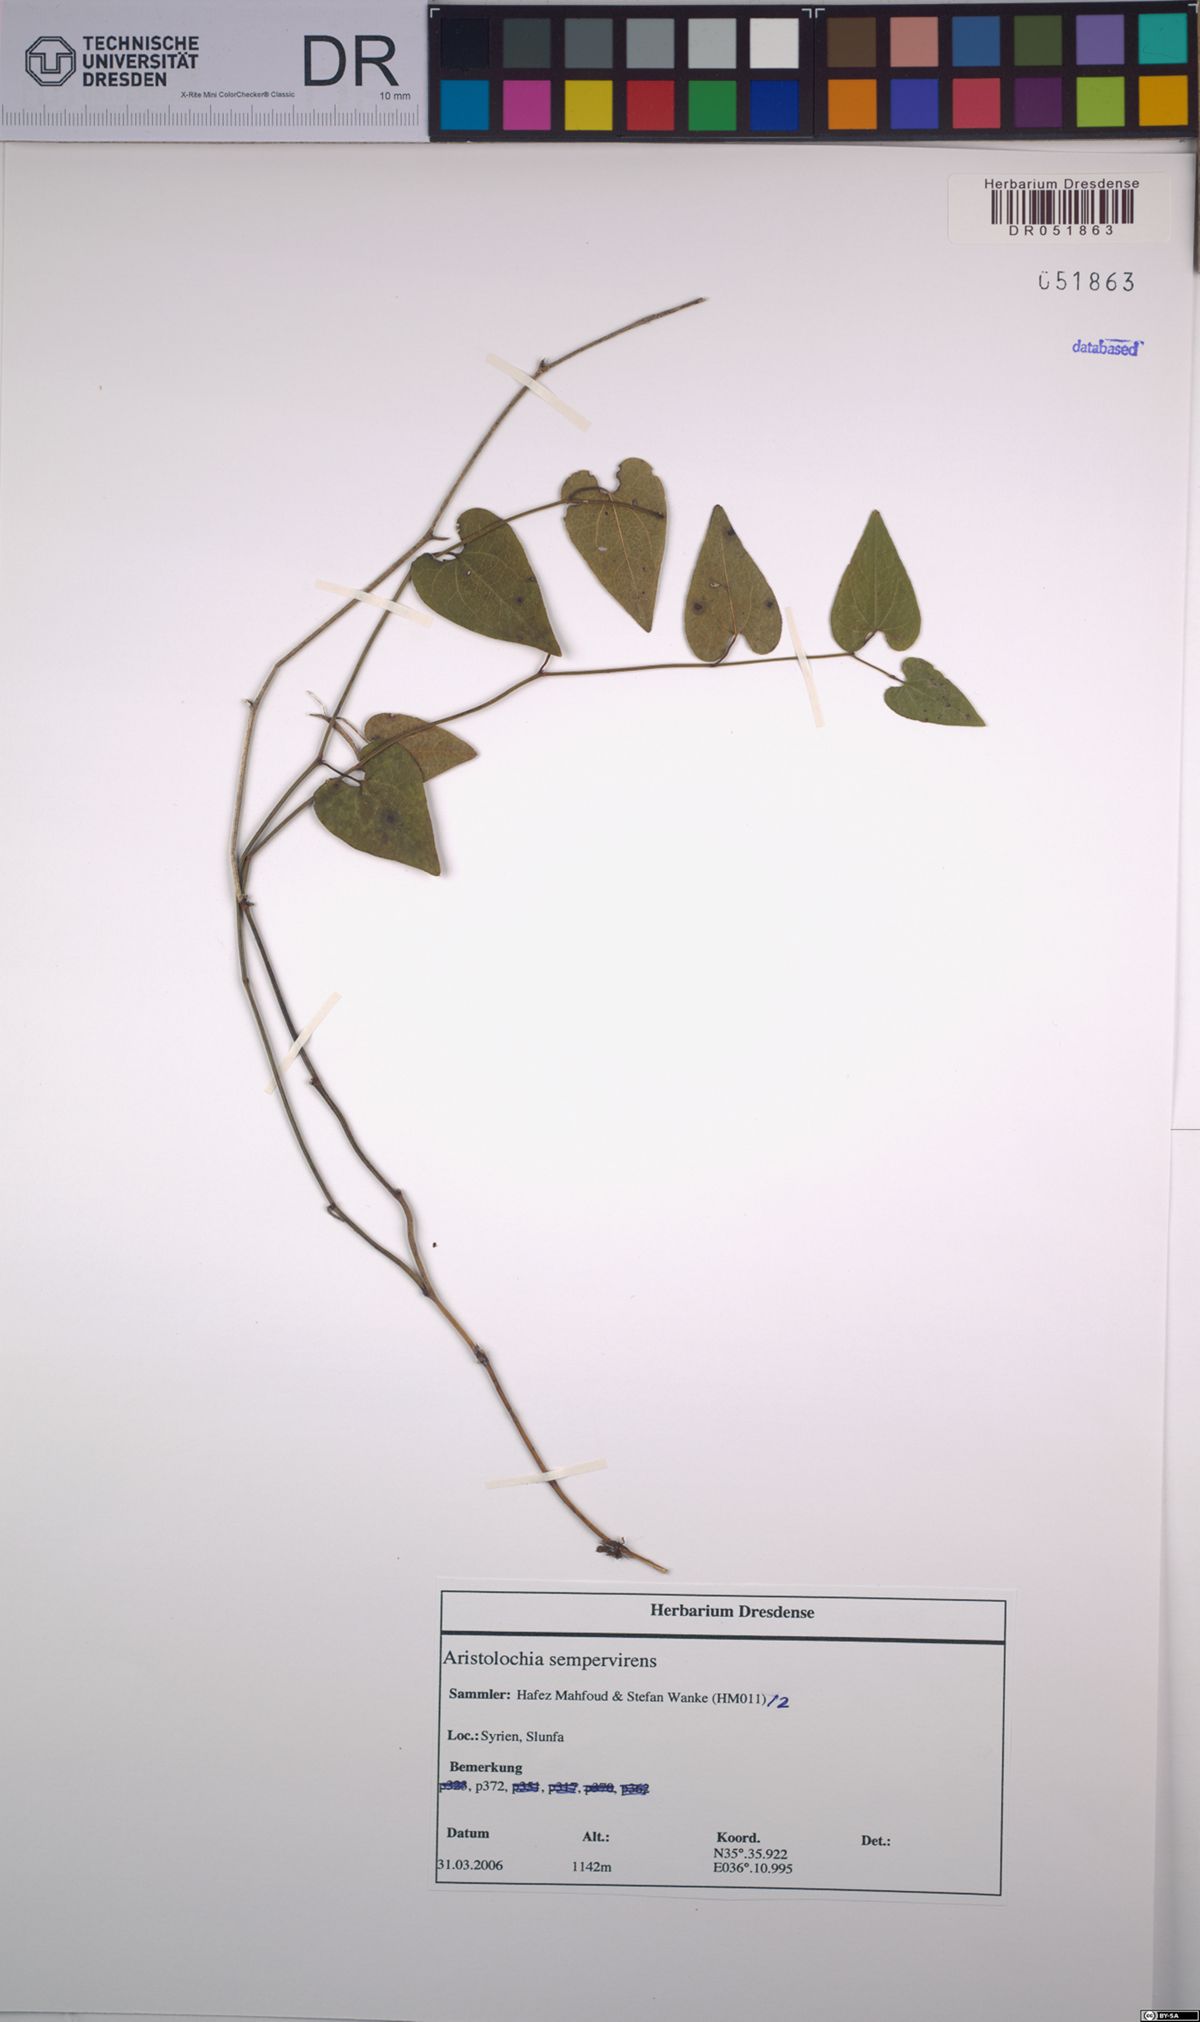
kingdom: Plantae
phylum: Tracheophyta
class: Magnoliopsida
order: Piperales
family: Aristolochiaceae
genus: Aristolochia
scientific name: Aristolochia sempervirens
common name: Long birthwort
